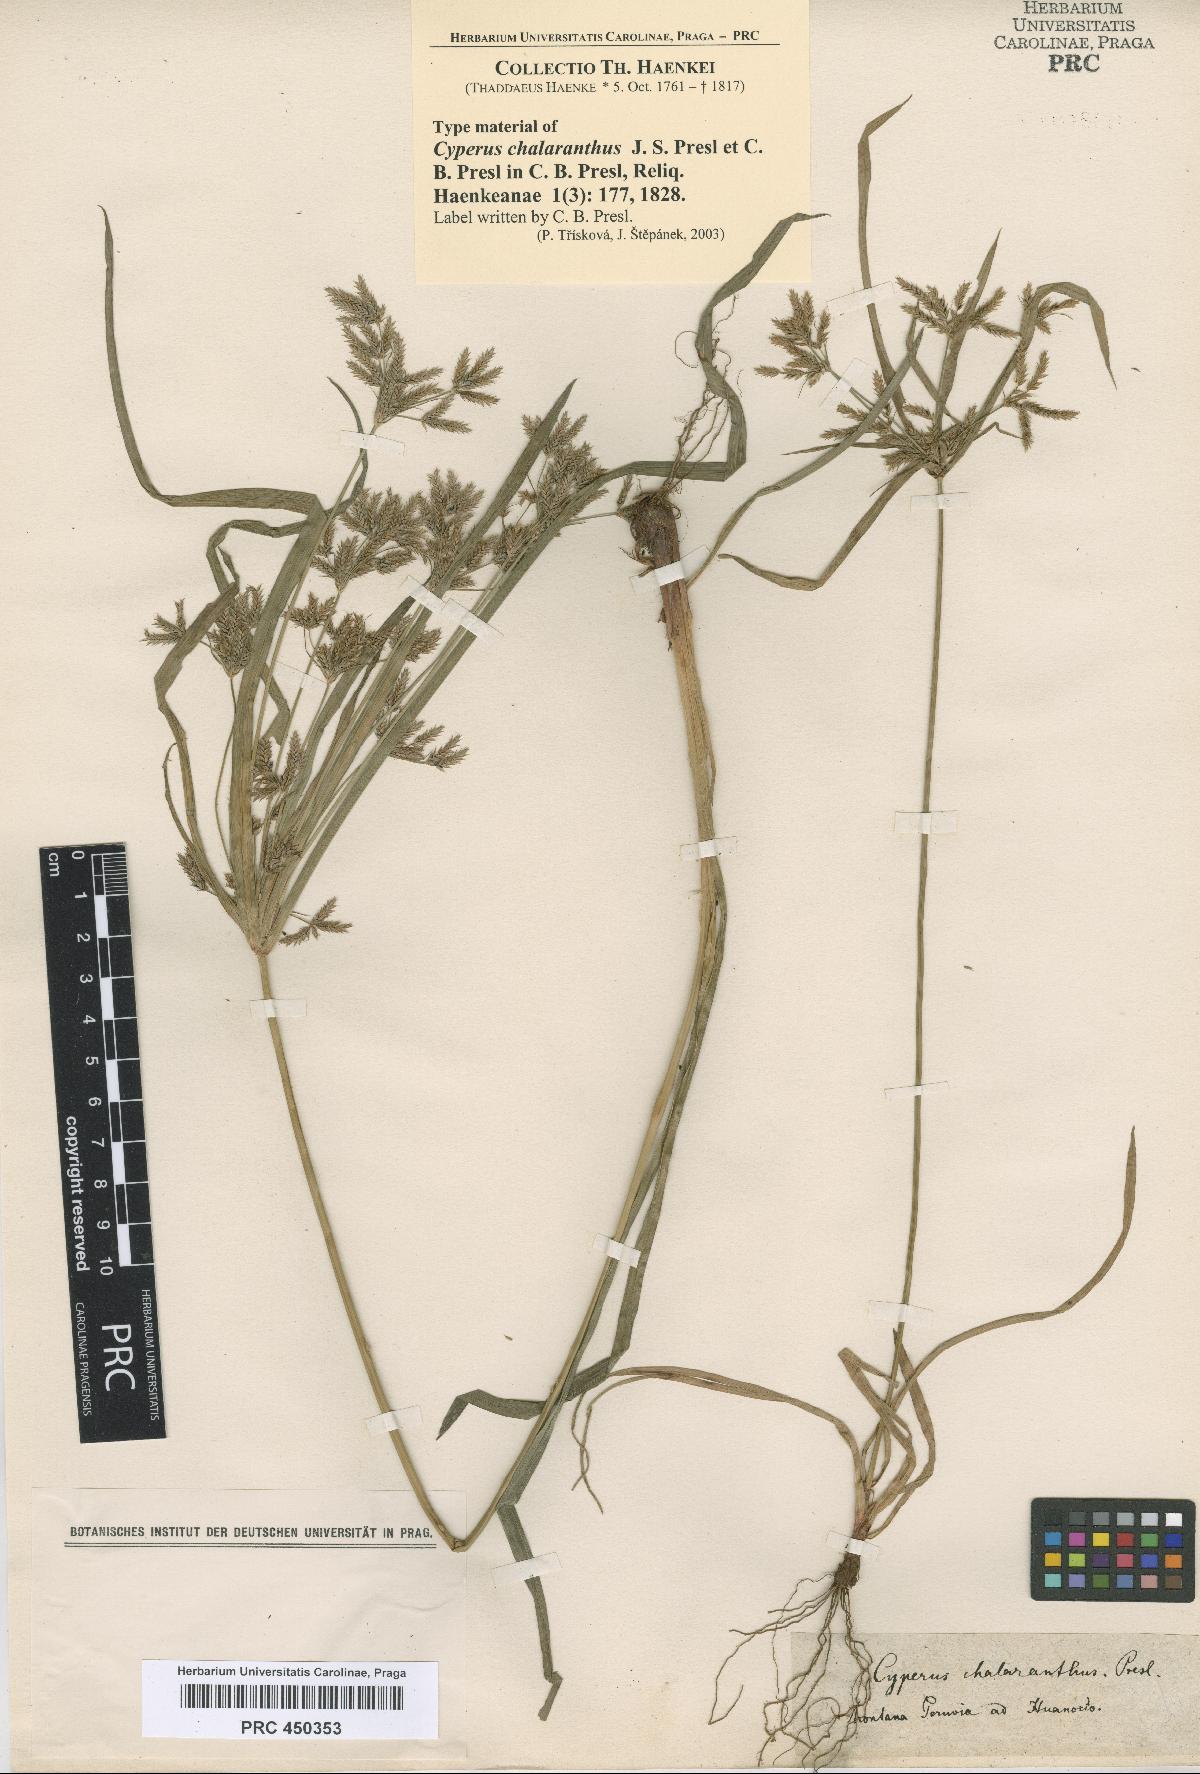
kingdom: Plantae
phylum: Tracheophyta
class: Liliopsida
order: Poales
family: Cyperaceae
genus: Cyperus
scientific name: Cyperus chalaranthus
